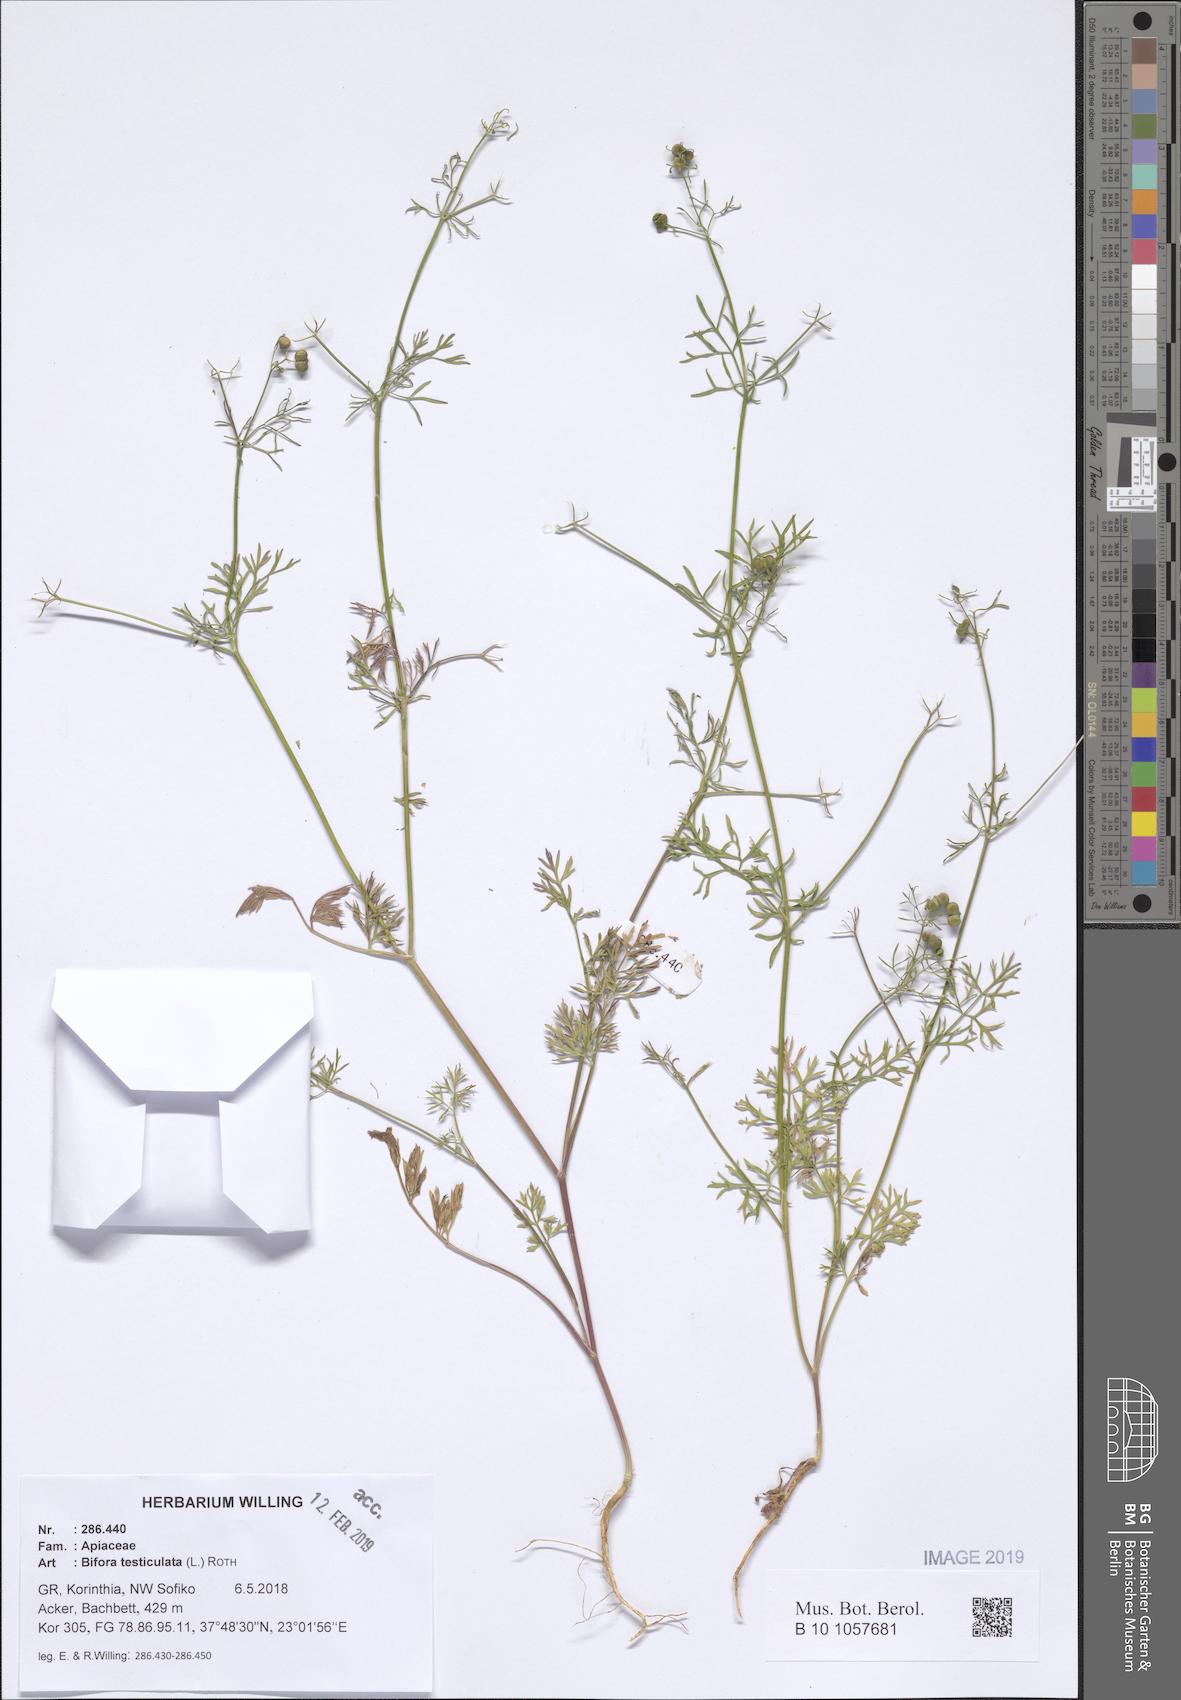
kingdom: Plantae
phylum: Tracheophyta
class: Magnoliopsida
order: Apiales
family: Apiaceae
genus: Bifora
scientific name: Bifora testiculata
